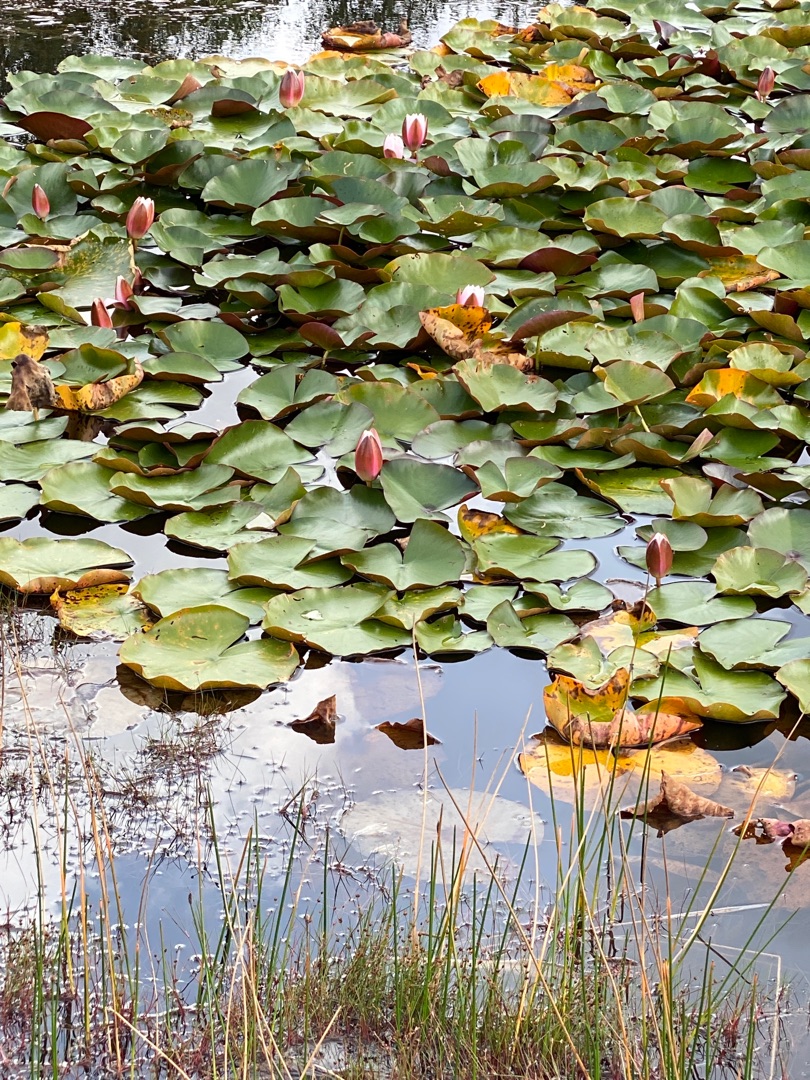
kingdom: Plantae
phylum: Tracheophyta
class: Magnoliopsida
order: Nymphaeales
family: Nymphaeaceae
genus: Nymphaea
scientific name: Nymphaea alba
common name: Hvid åkande
